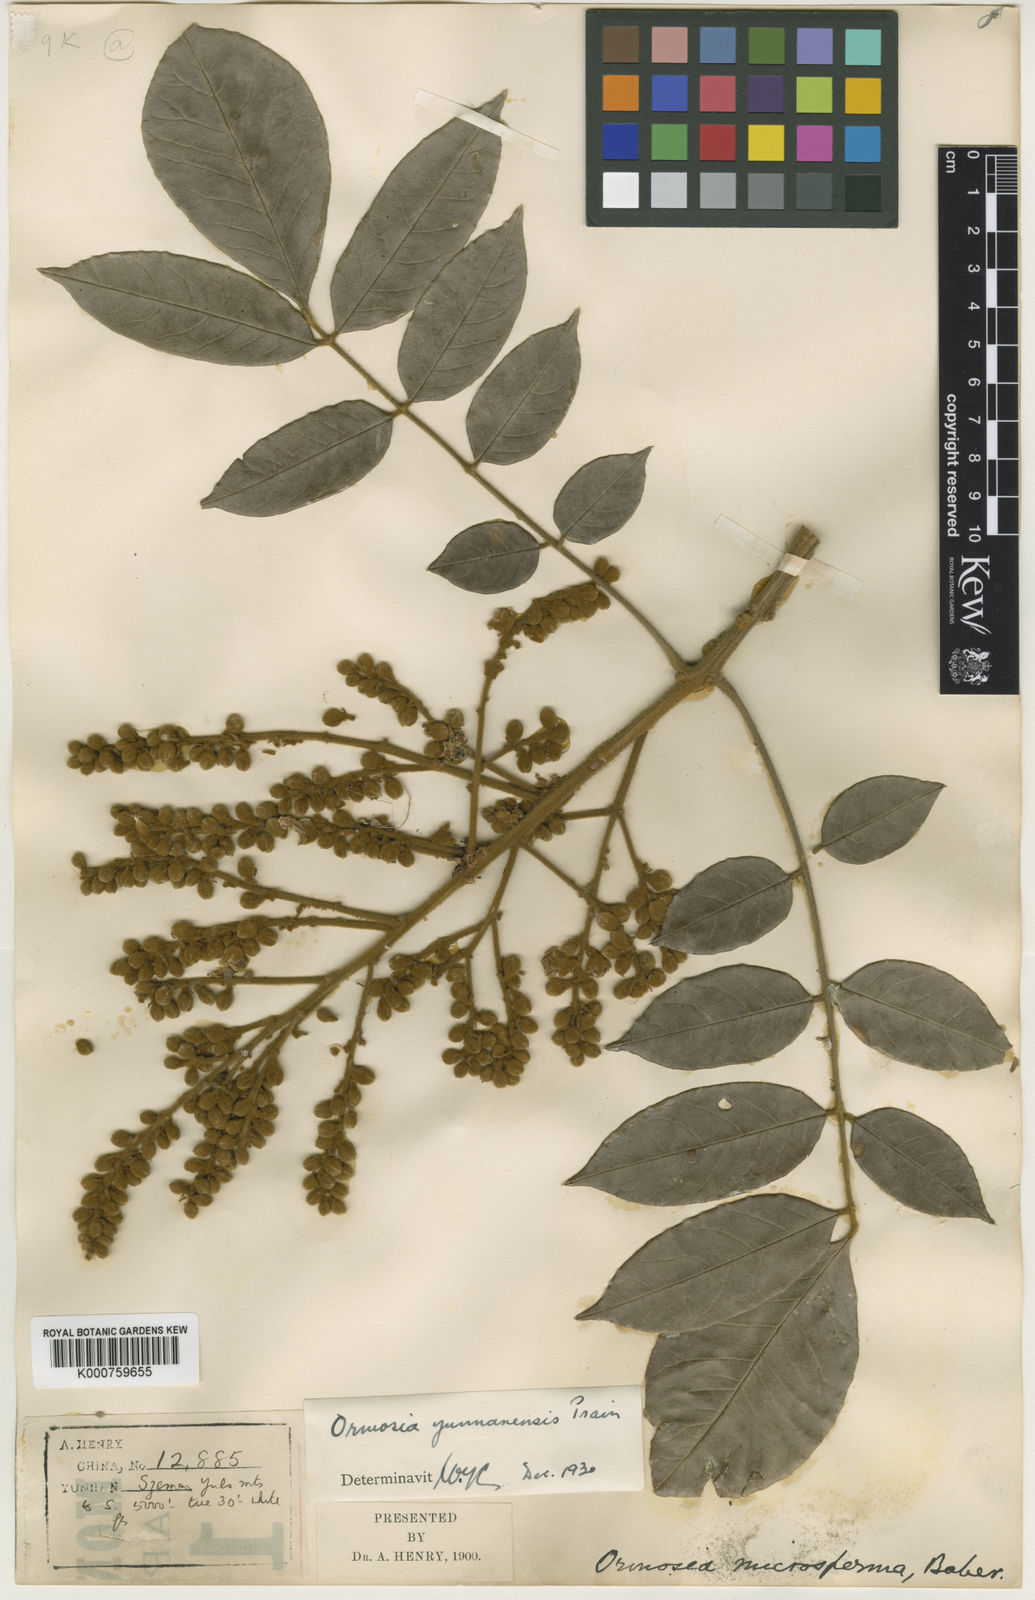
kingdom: Plantae
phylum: Tracheophyta
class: Magnoliopsida
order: Fabales
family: Fabaceae
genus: Ormosia
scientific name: Ormosia yunnanensis
